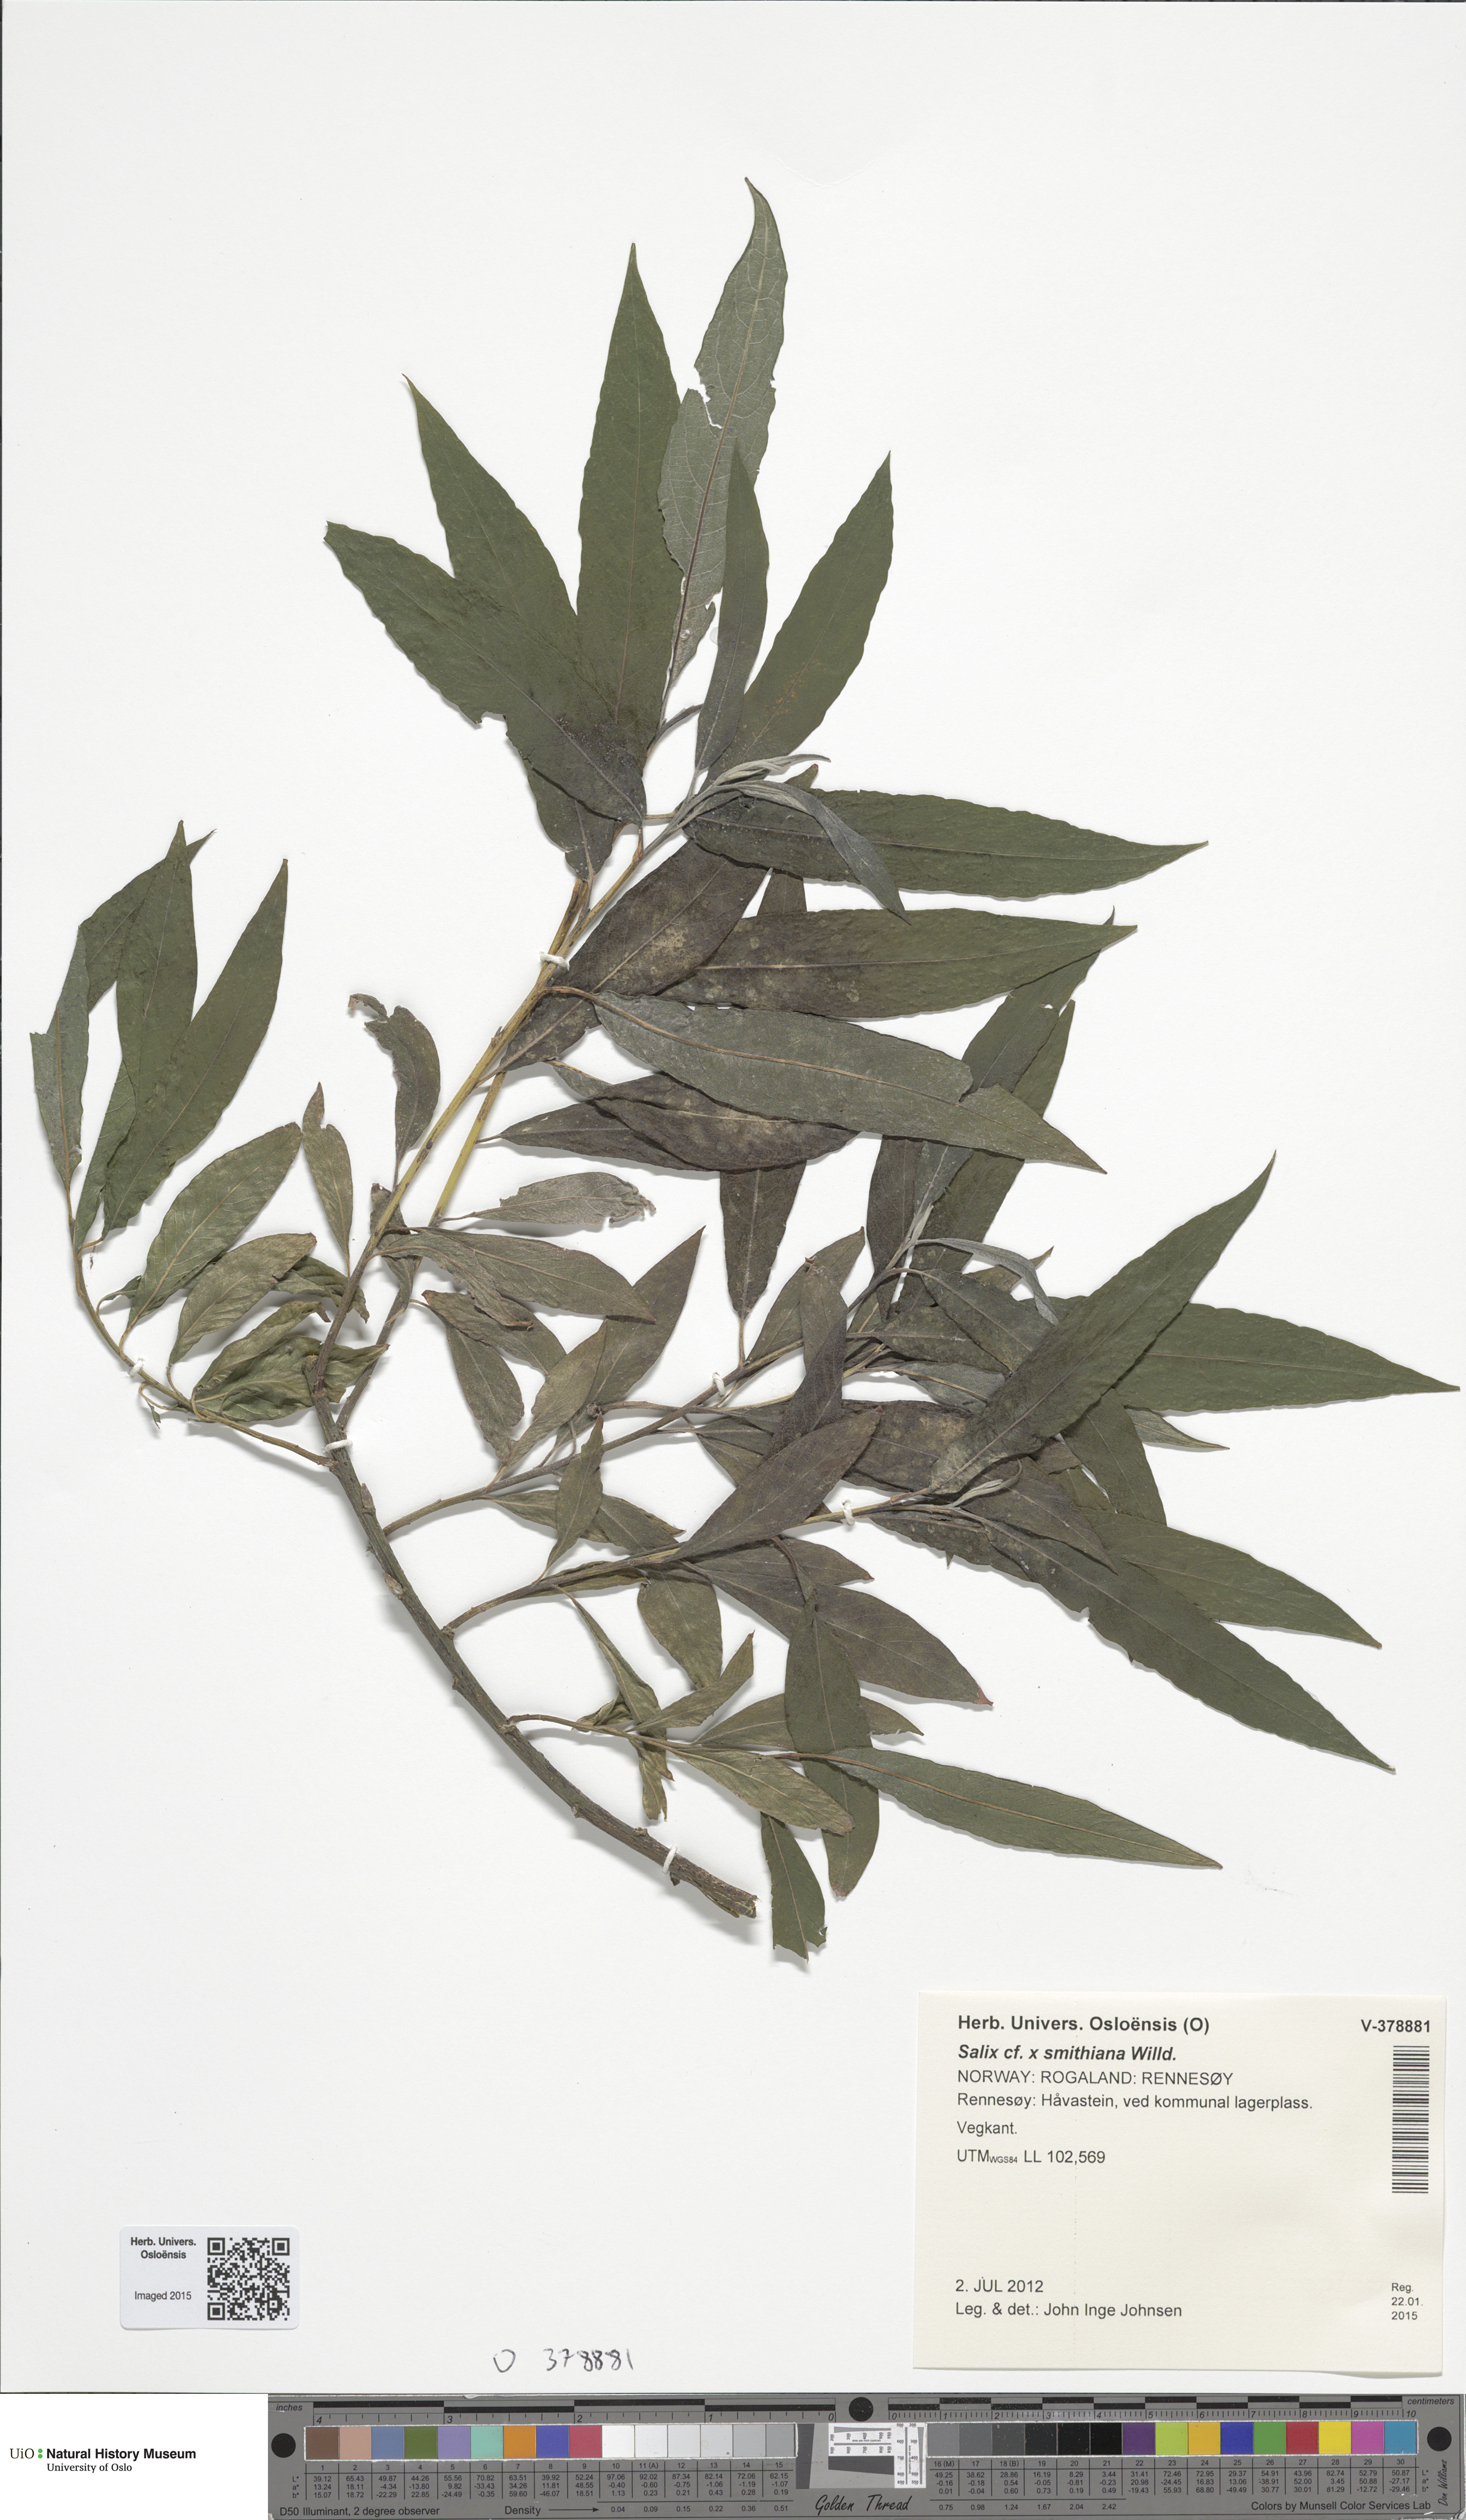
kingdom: Plantae
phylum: Tracheophyta
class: Magnoliopsida
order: Malpighiales
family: Salicaceae
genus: Salix
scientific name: Salix smithiana
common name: Silky-leaved osier
